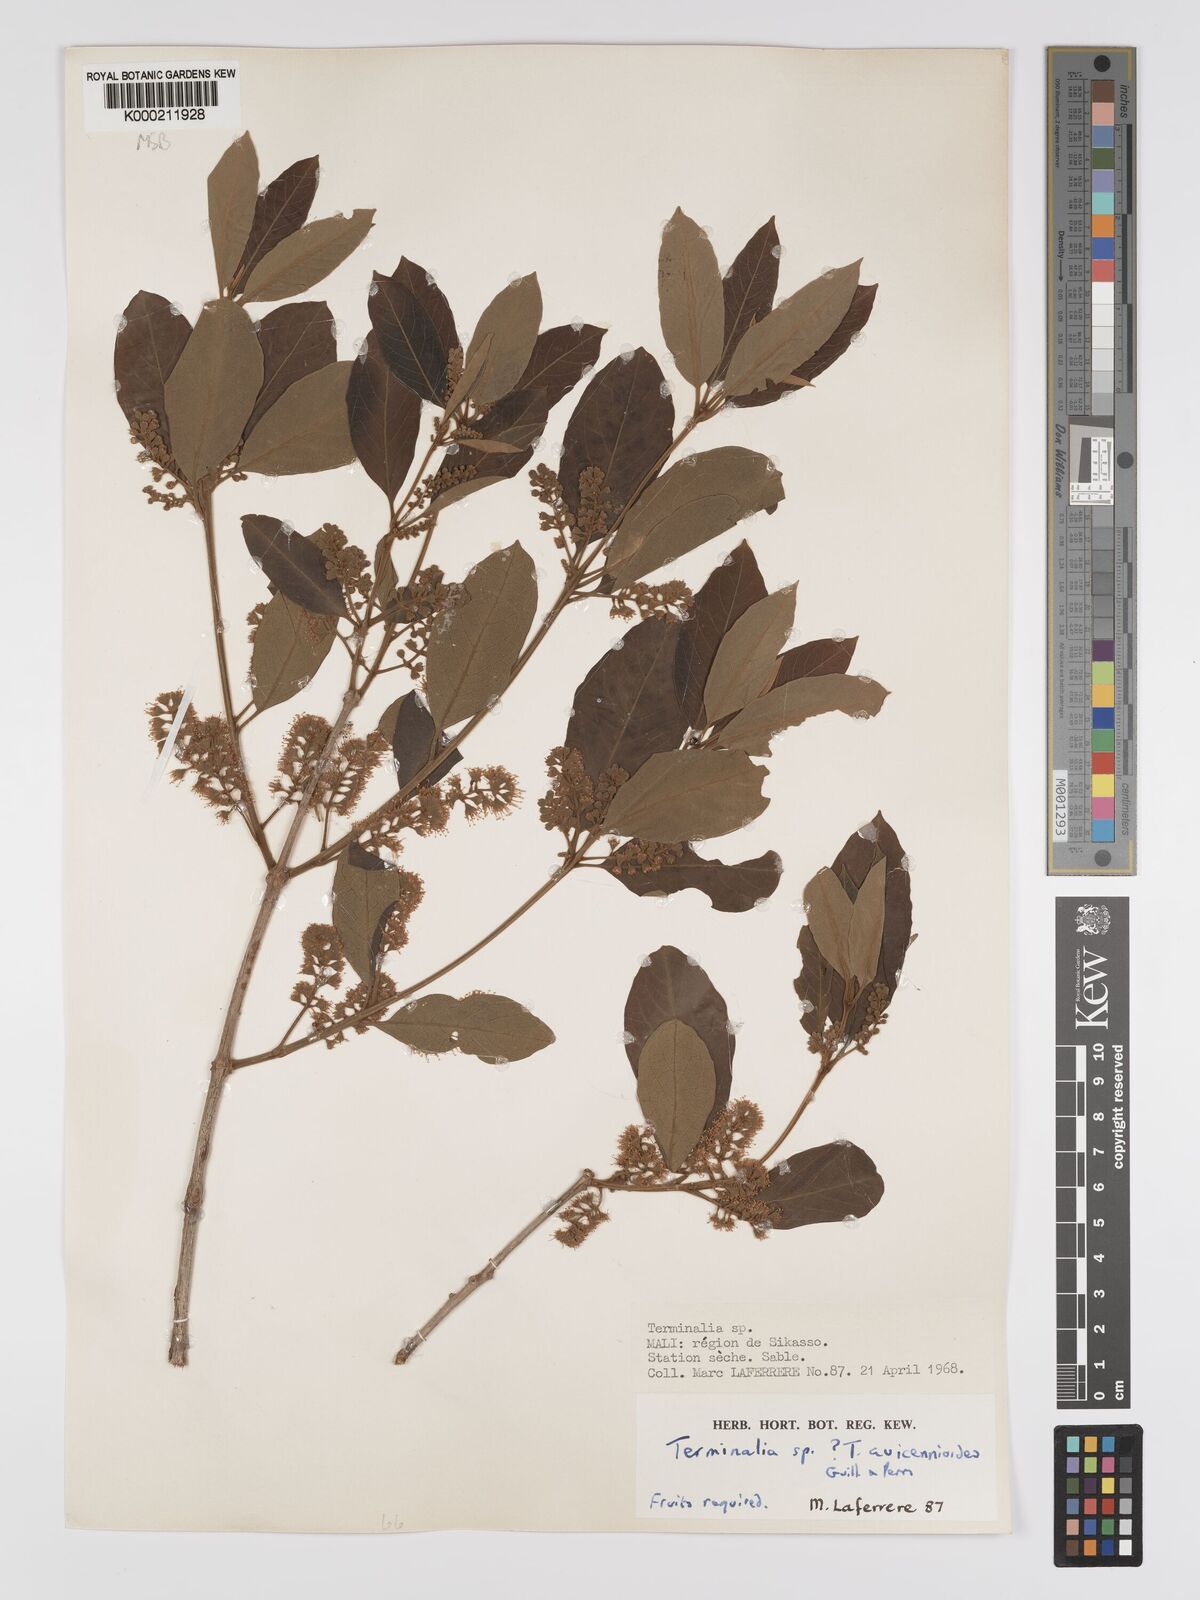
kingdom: Plantae
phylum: Tracheophyta
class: Magnoliopsida
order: Myrtales
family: Combretaceae
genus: Terminalia
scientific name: Terminalia avicennioides
